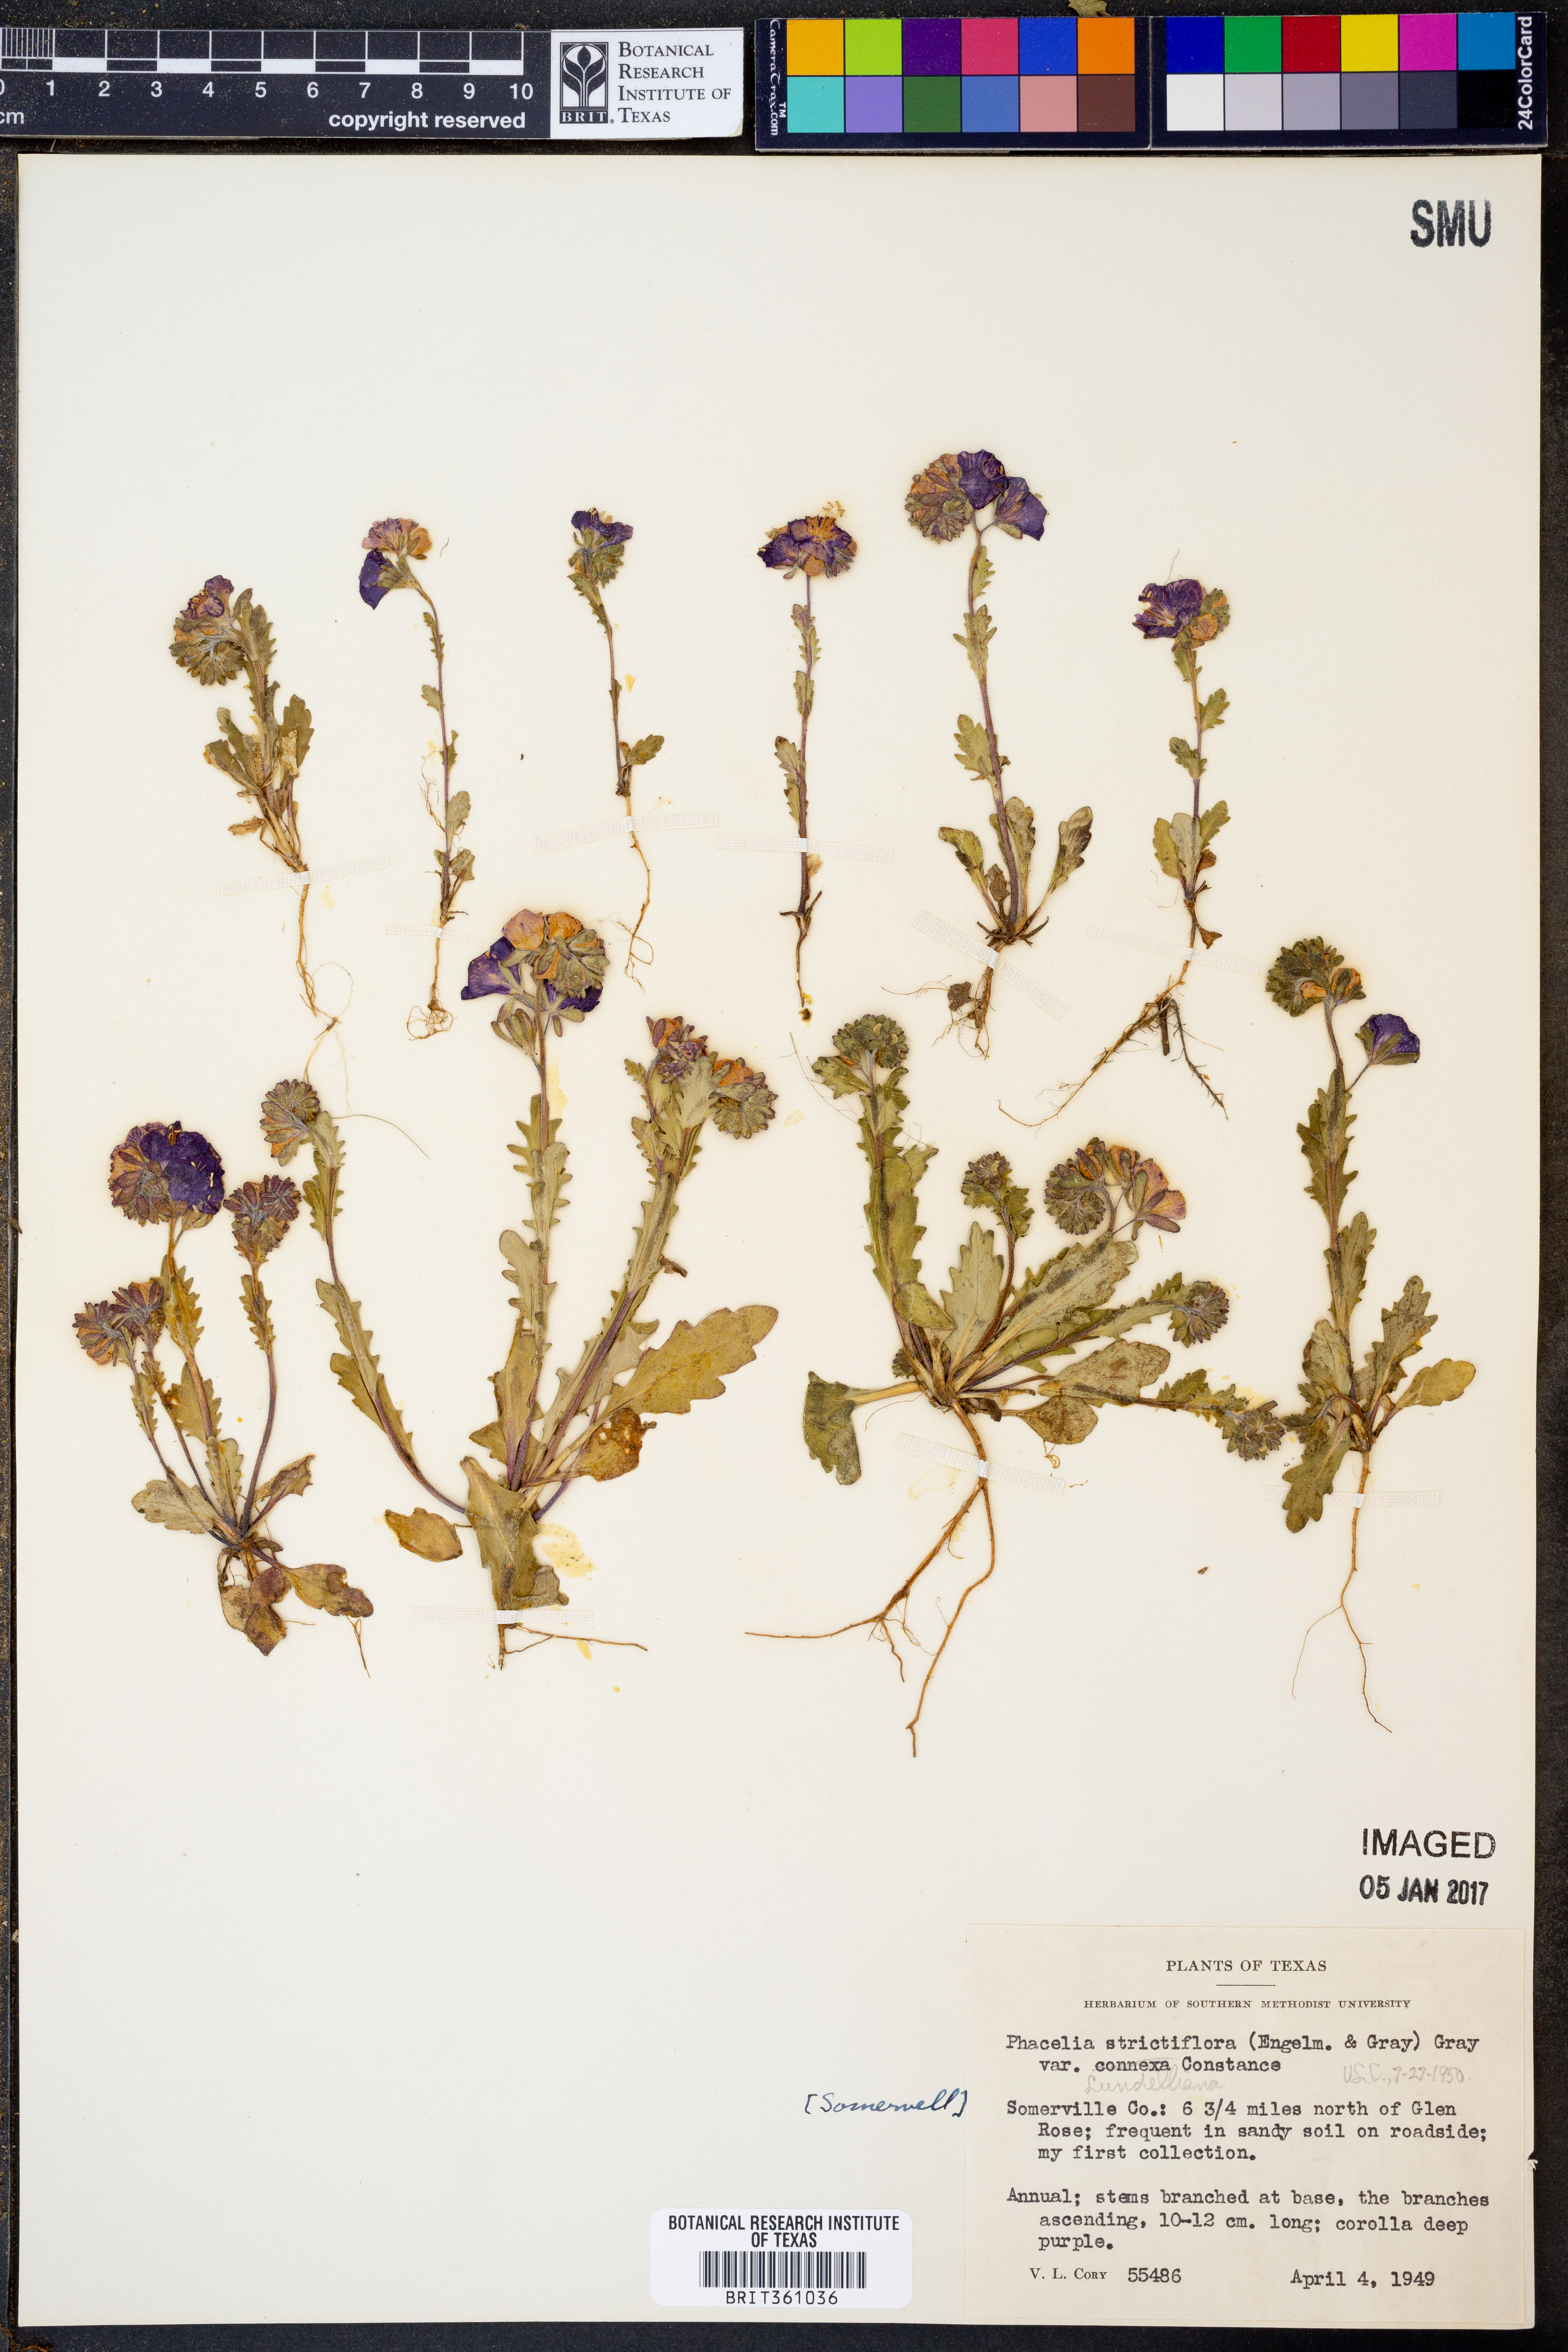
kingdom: Plantae
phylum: Tracheophyta
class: Magnoliopsida
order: Boraginales
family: Hydrophyllaceae
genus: Phacelia
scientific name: Phacelia strictiflora
